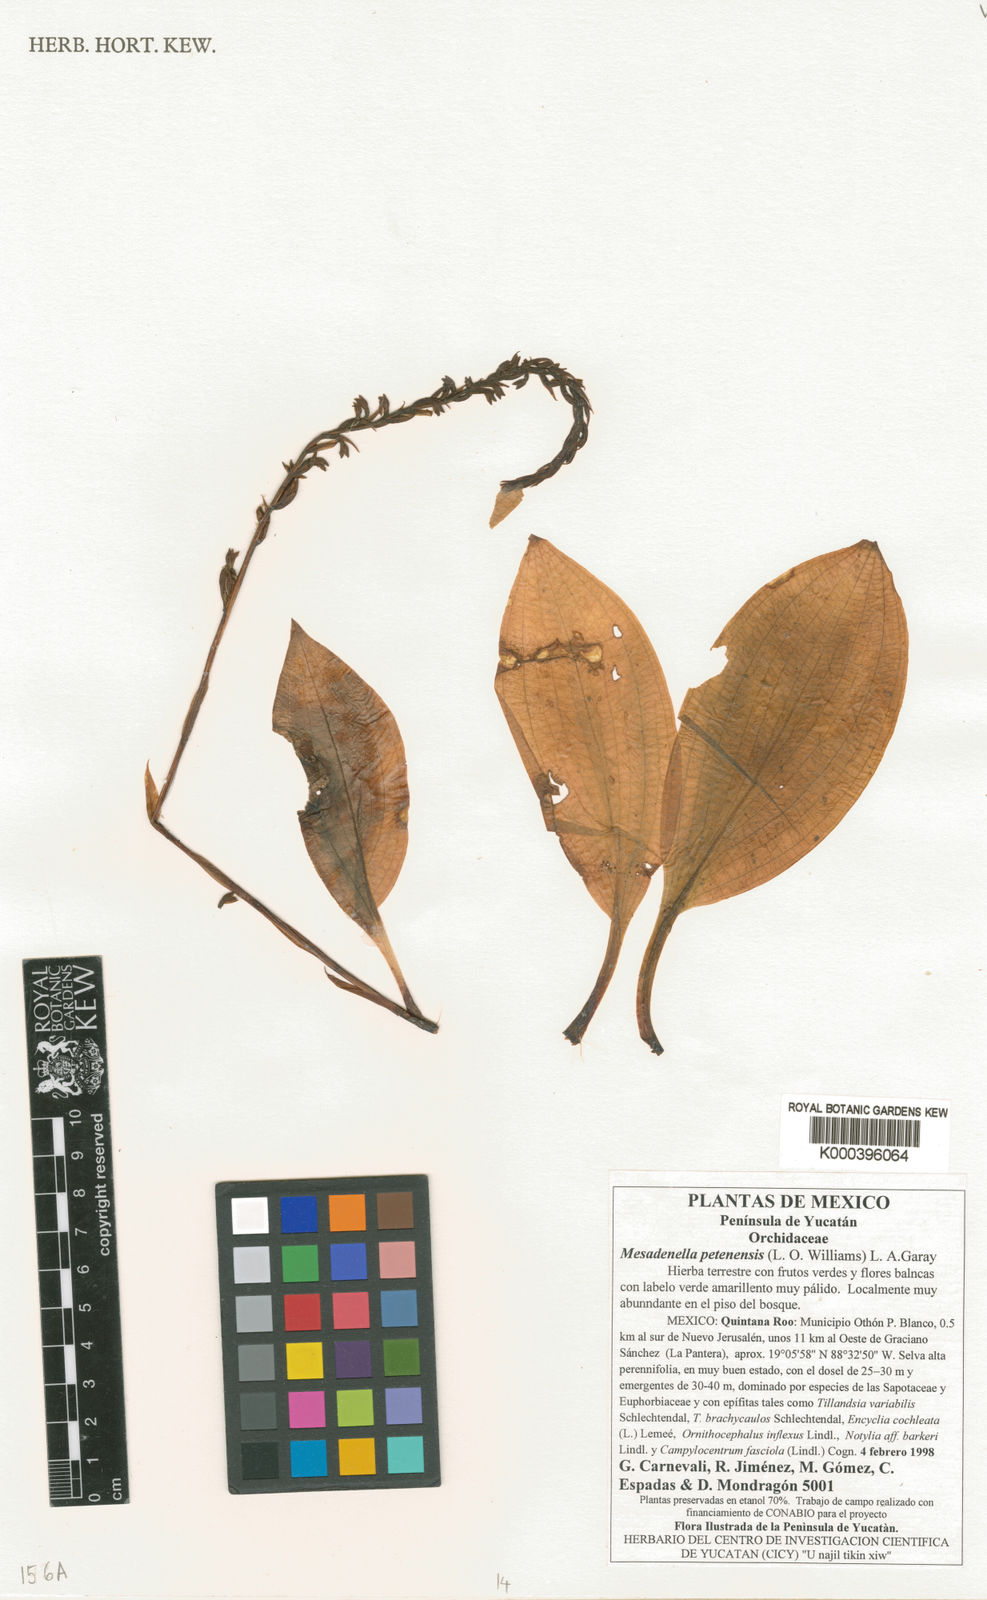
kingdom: Plantae
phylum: Tracheophyta
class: Liliopsida
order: Asparagales
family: Orchidaceae
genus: Mesadenella
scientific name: Mesadenella petenensis
